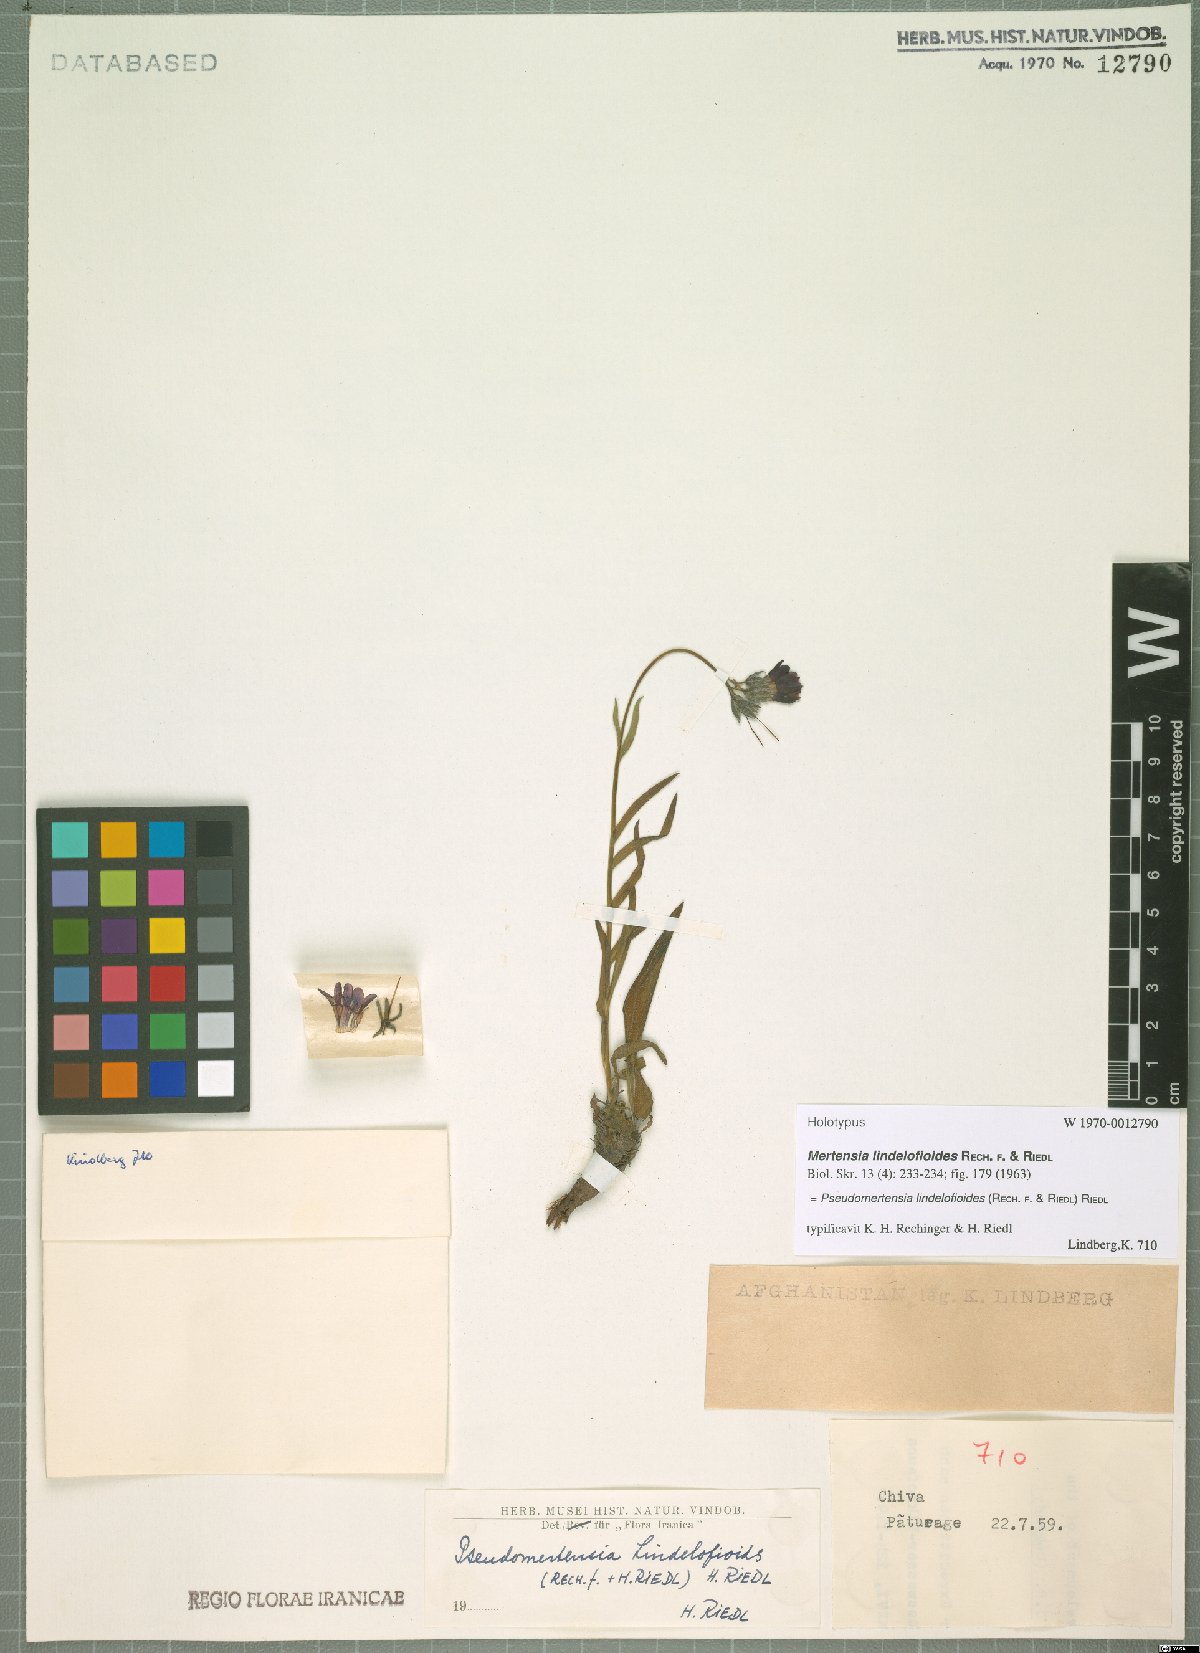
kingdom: Plantae
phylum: Tracheophyta
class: Magnoliopsida
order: Boraginales
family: Boraginaceae
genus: Lindelofia
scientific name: Lindelofia olgae
